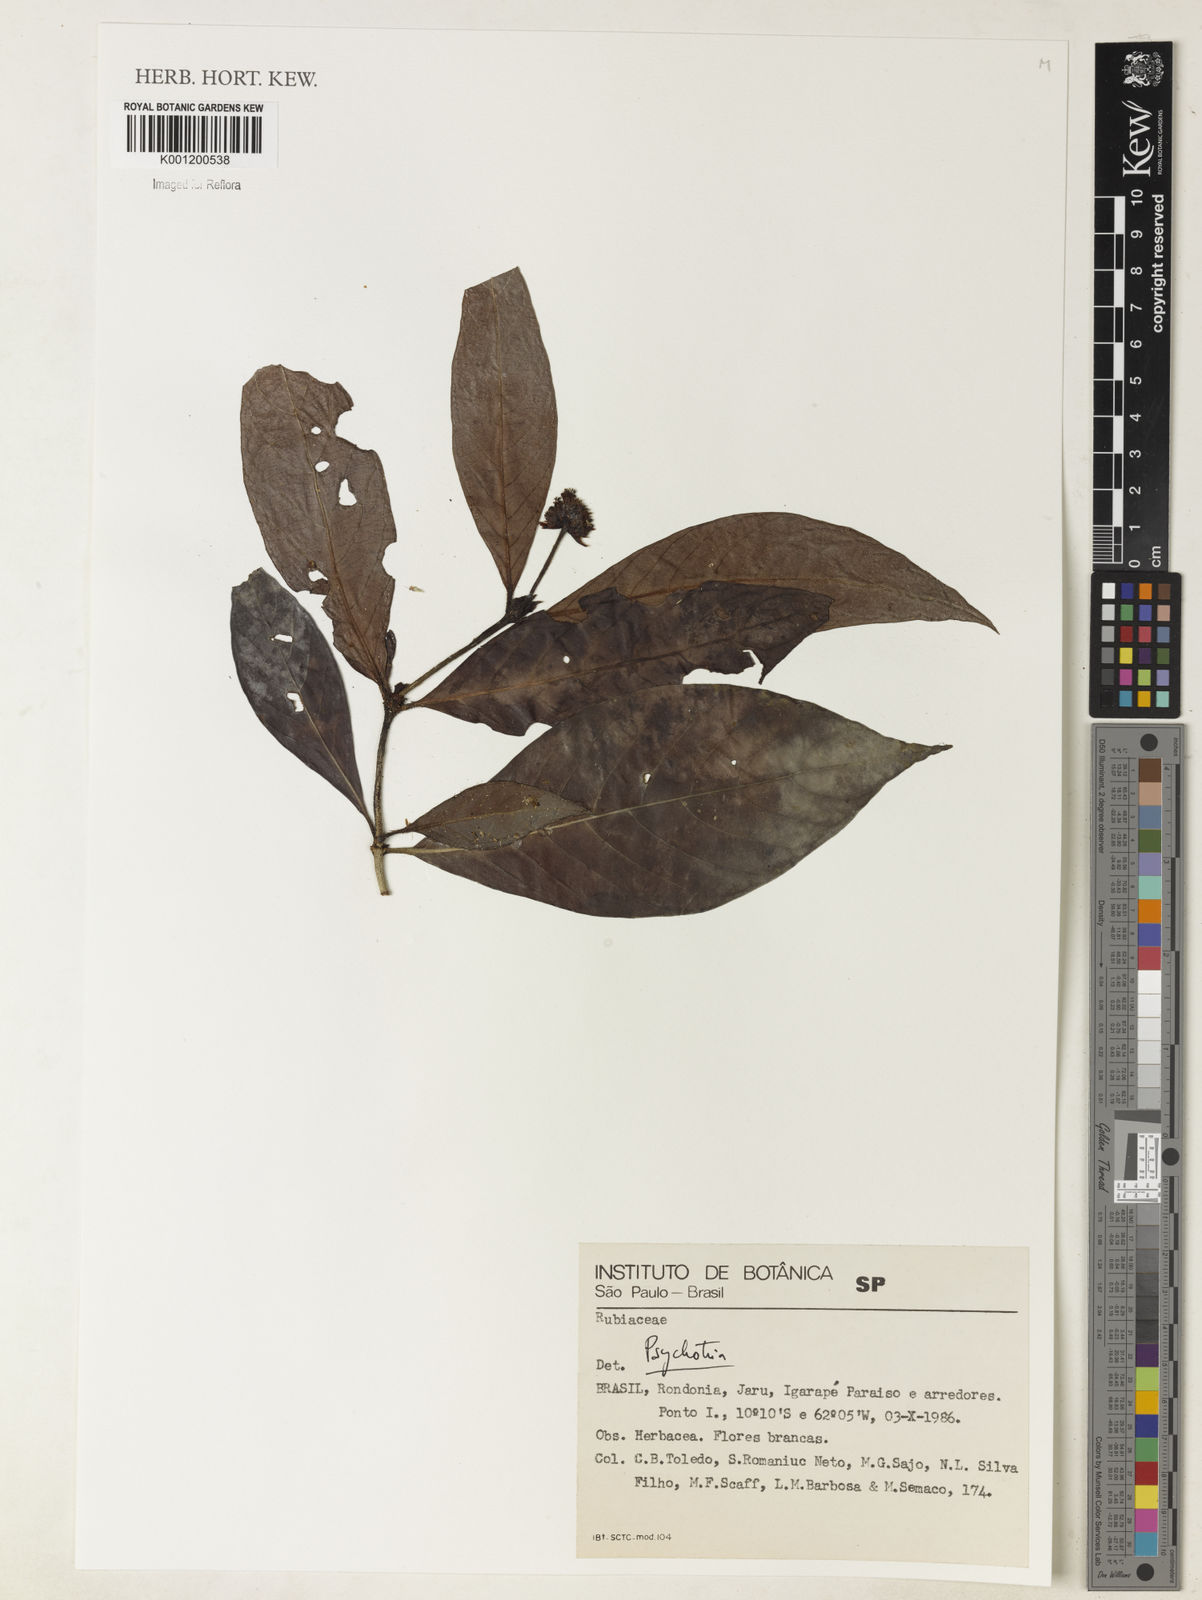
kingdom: Plantae
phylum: Tracheophyta
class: Magnoliopsida
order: Gentianales
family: Rubiaceae
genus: Psychotria
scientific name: Psychotria
